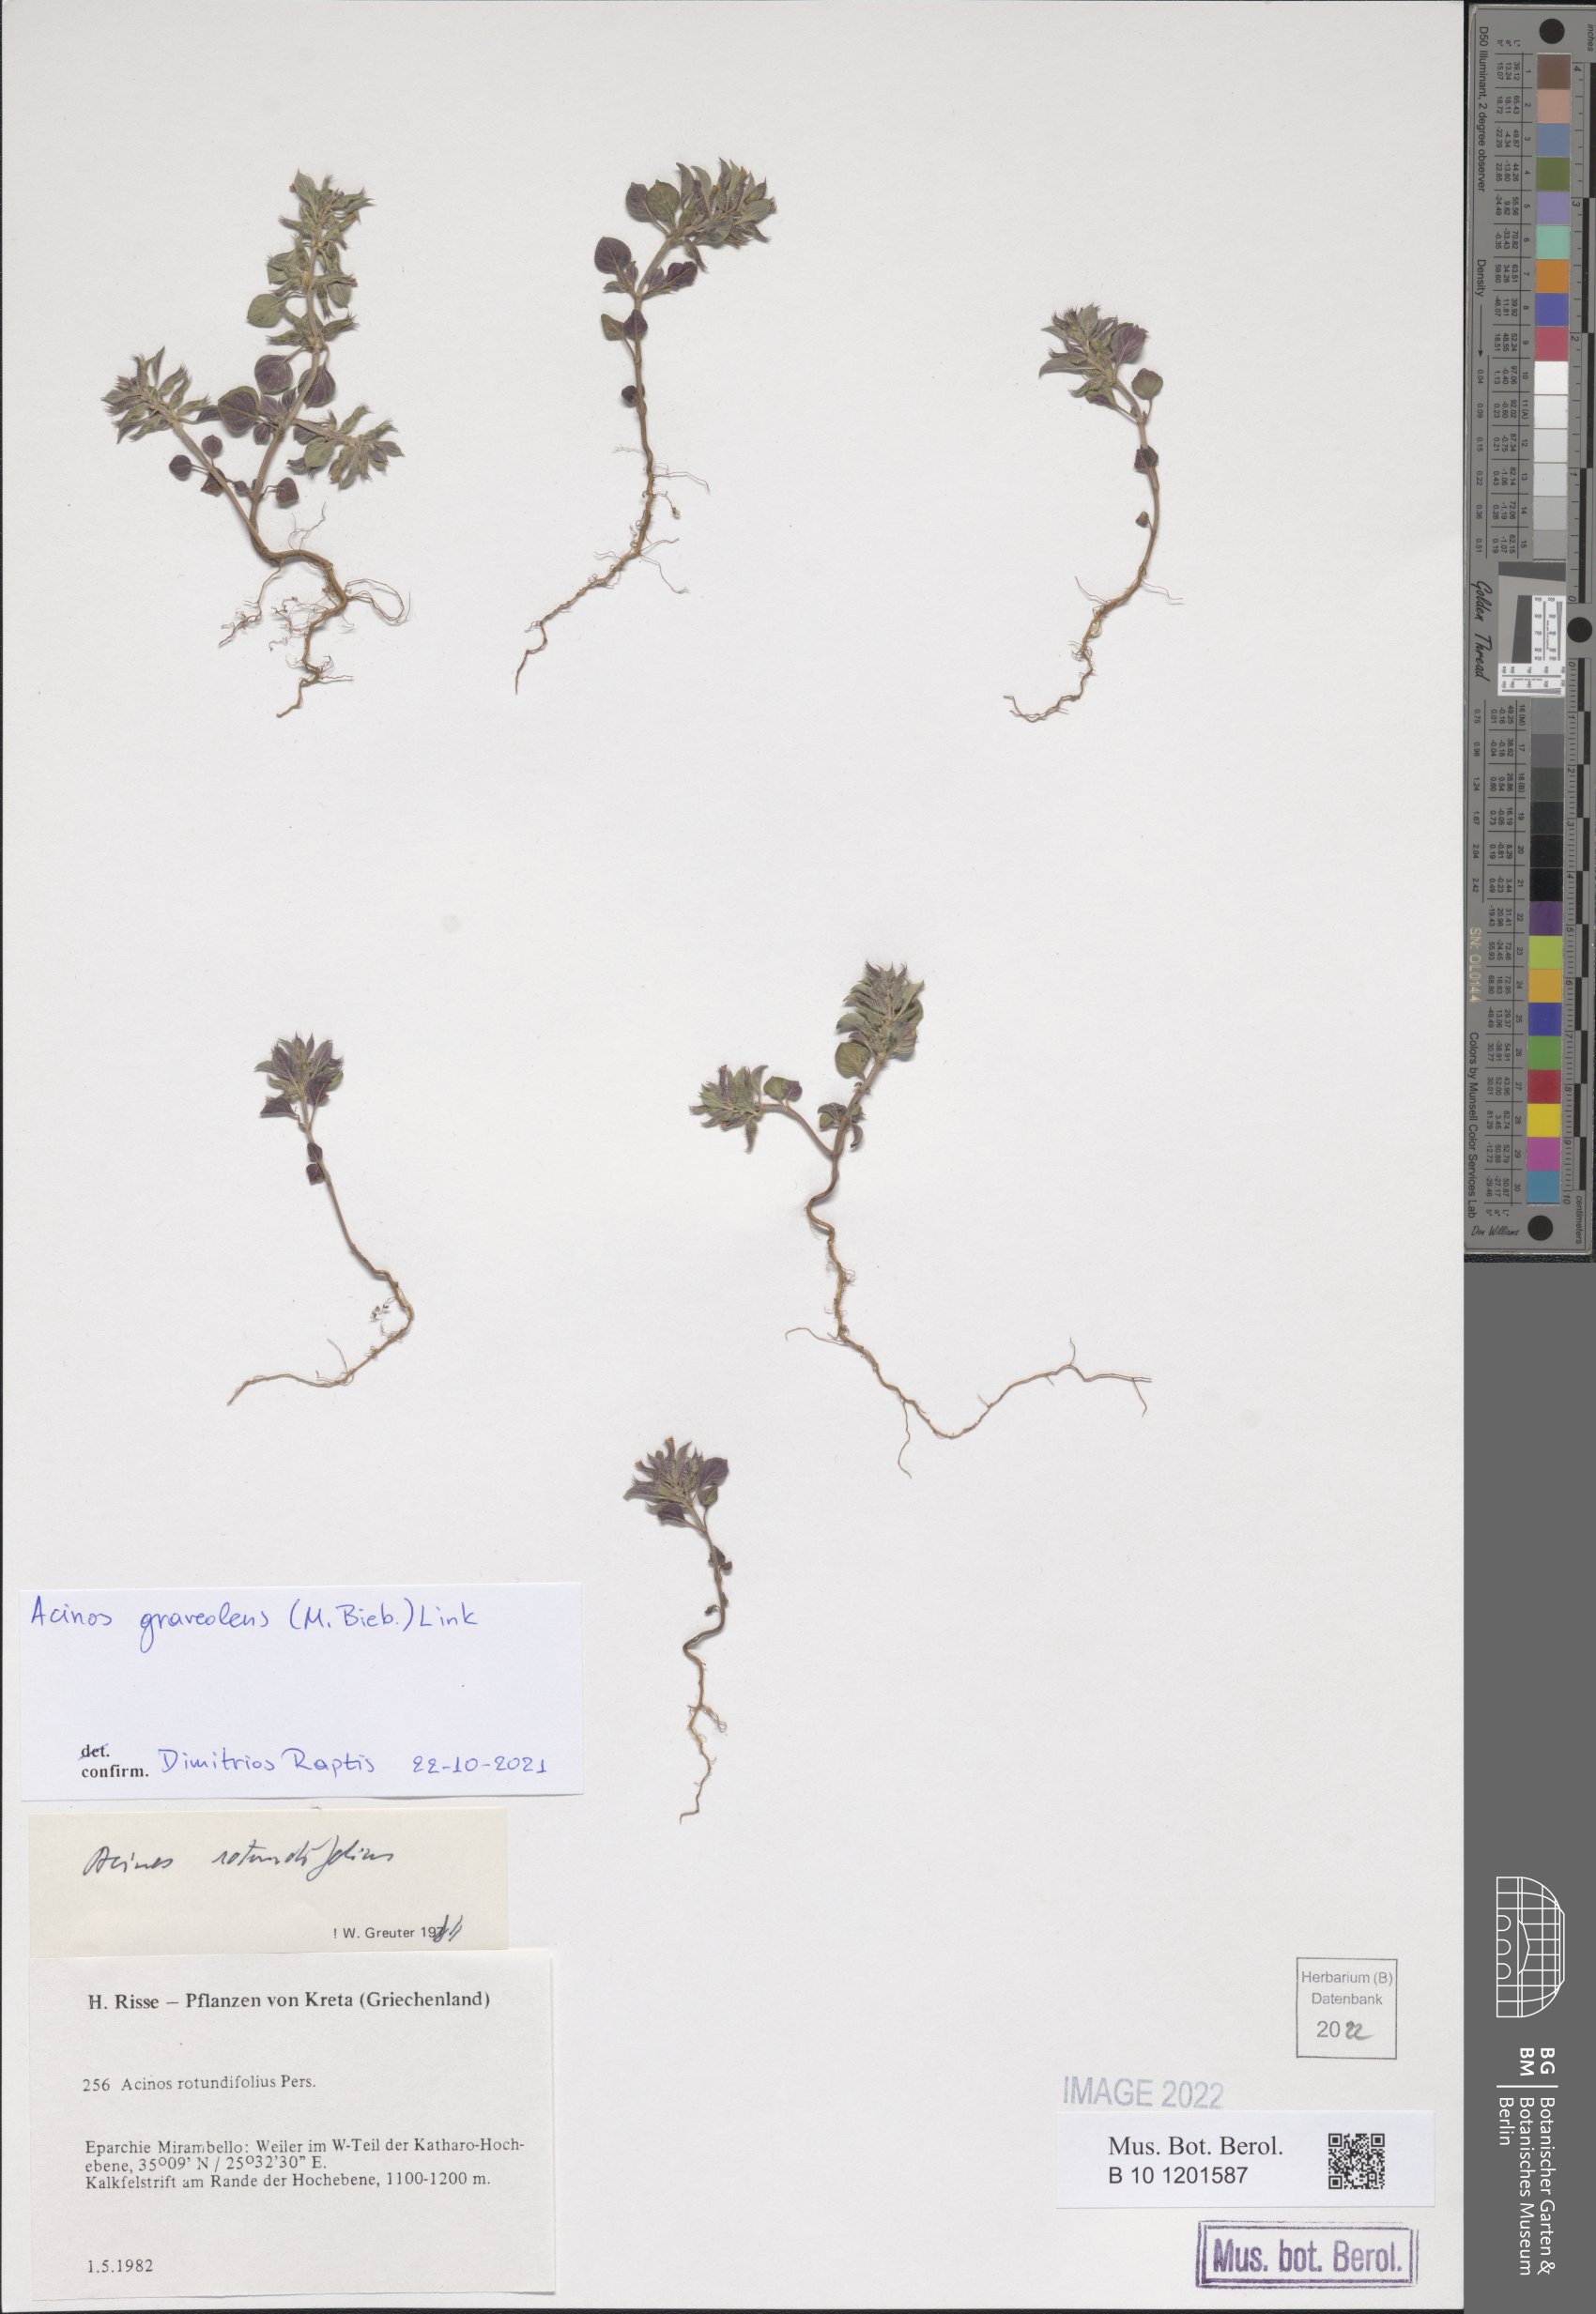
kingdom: Plantae
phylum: Tracheophyta
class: Magnoliopsida
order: Lamiales
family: Lamiaceae
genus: Clinopodium
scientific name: Clinopodium graveolens
